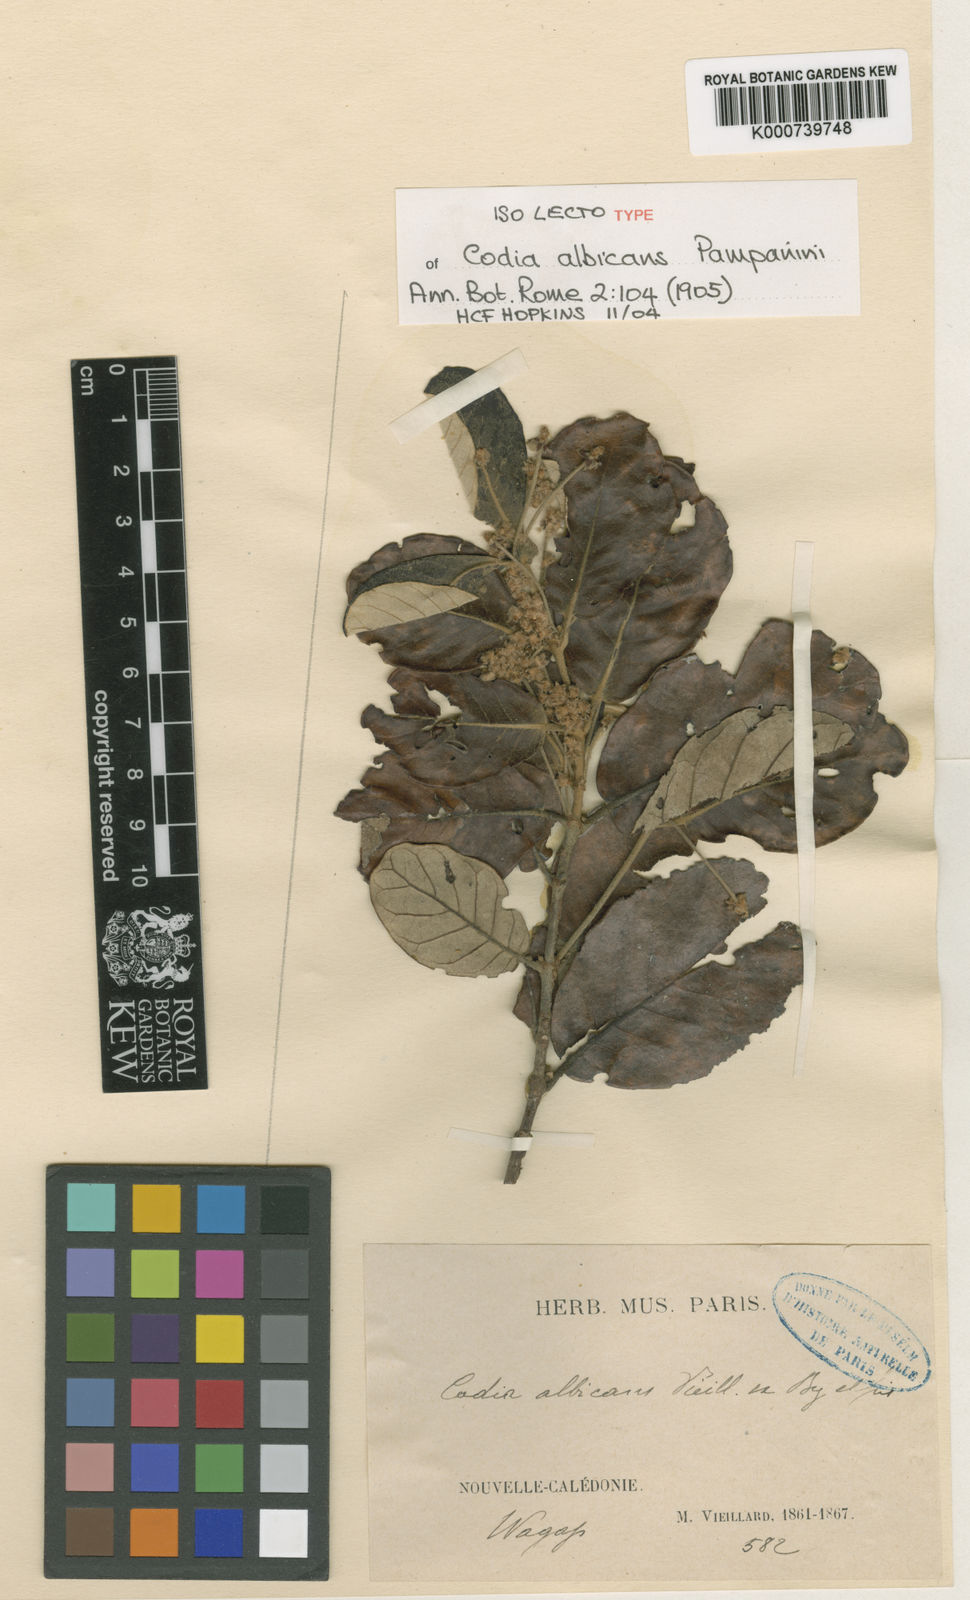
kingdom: Plantae
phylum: Tracheophyta
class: Magnoliopsida
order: Oxalidales
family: Cunoniaceae
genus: Codia
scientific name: Codia albicans
